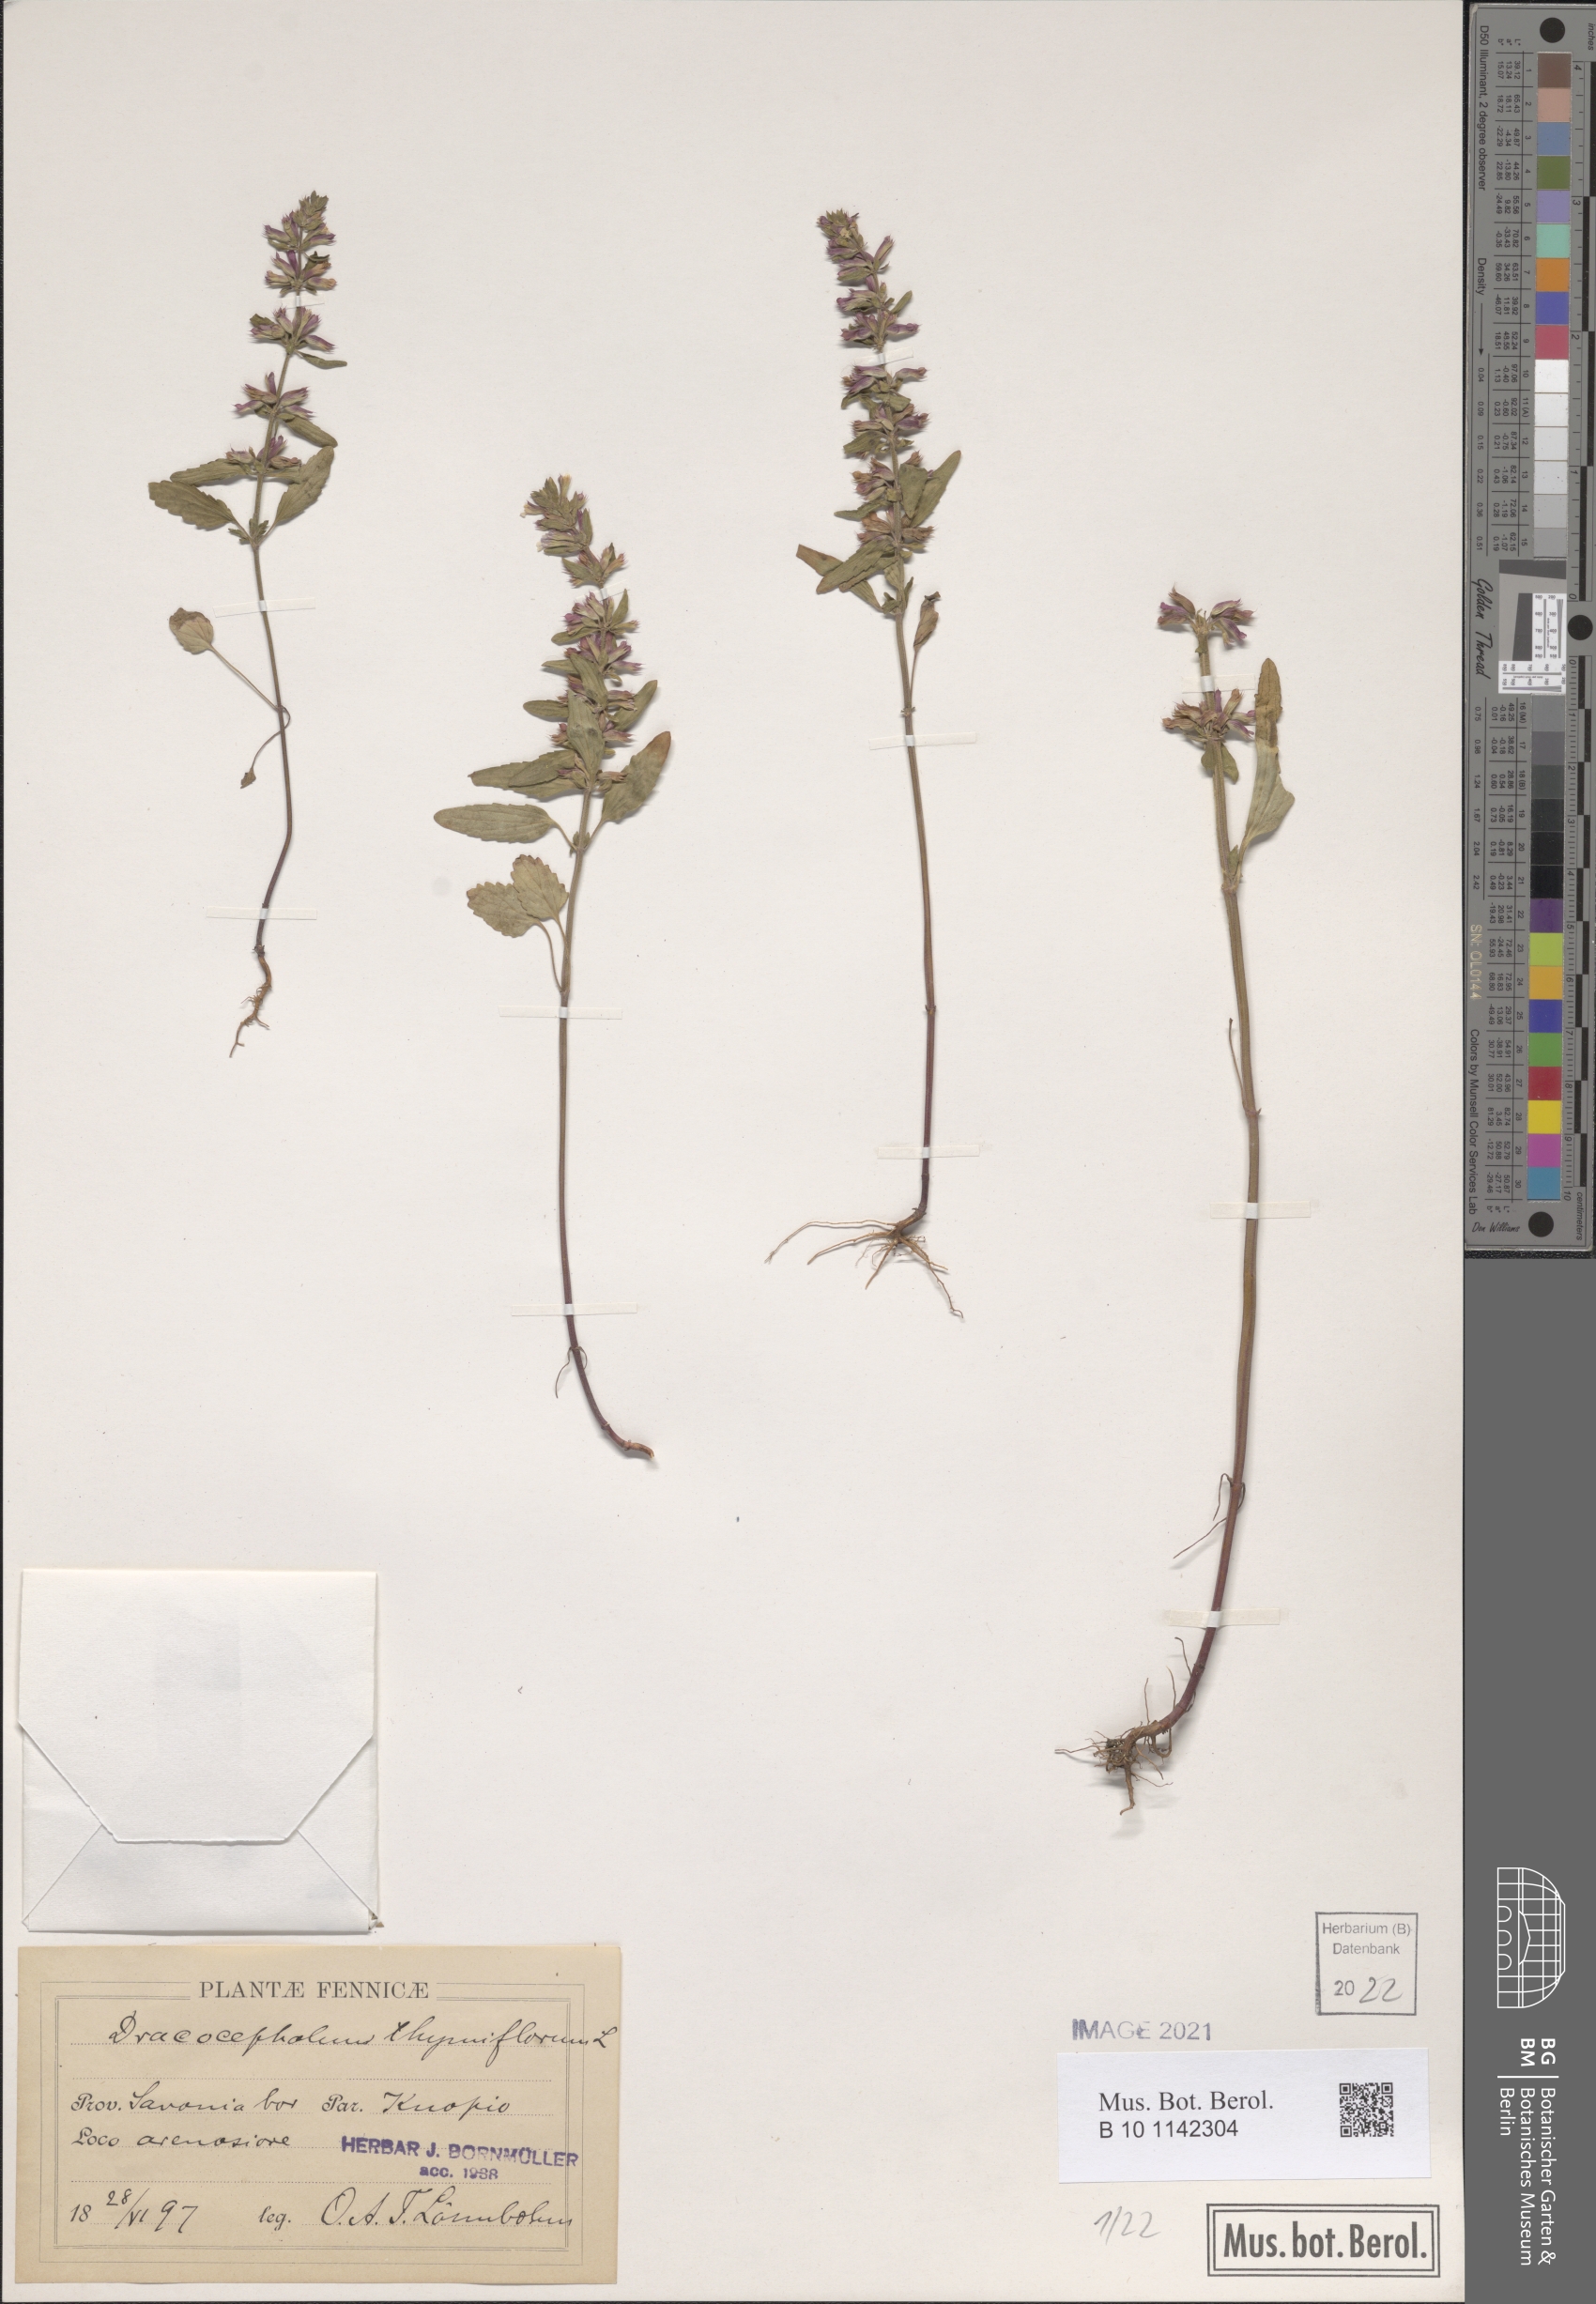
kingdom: Plantae
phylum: Tracheophyta
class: Magnoliopsida
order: Lamiales
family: Lamiaceae
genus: Dracocephalum
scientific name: Dracocephalum thymiflorum
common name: Thymeleaf dragonhead
